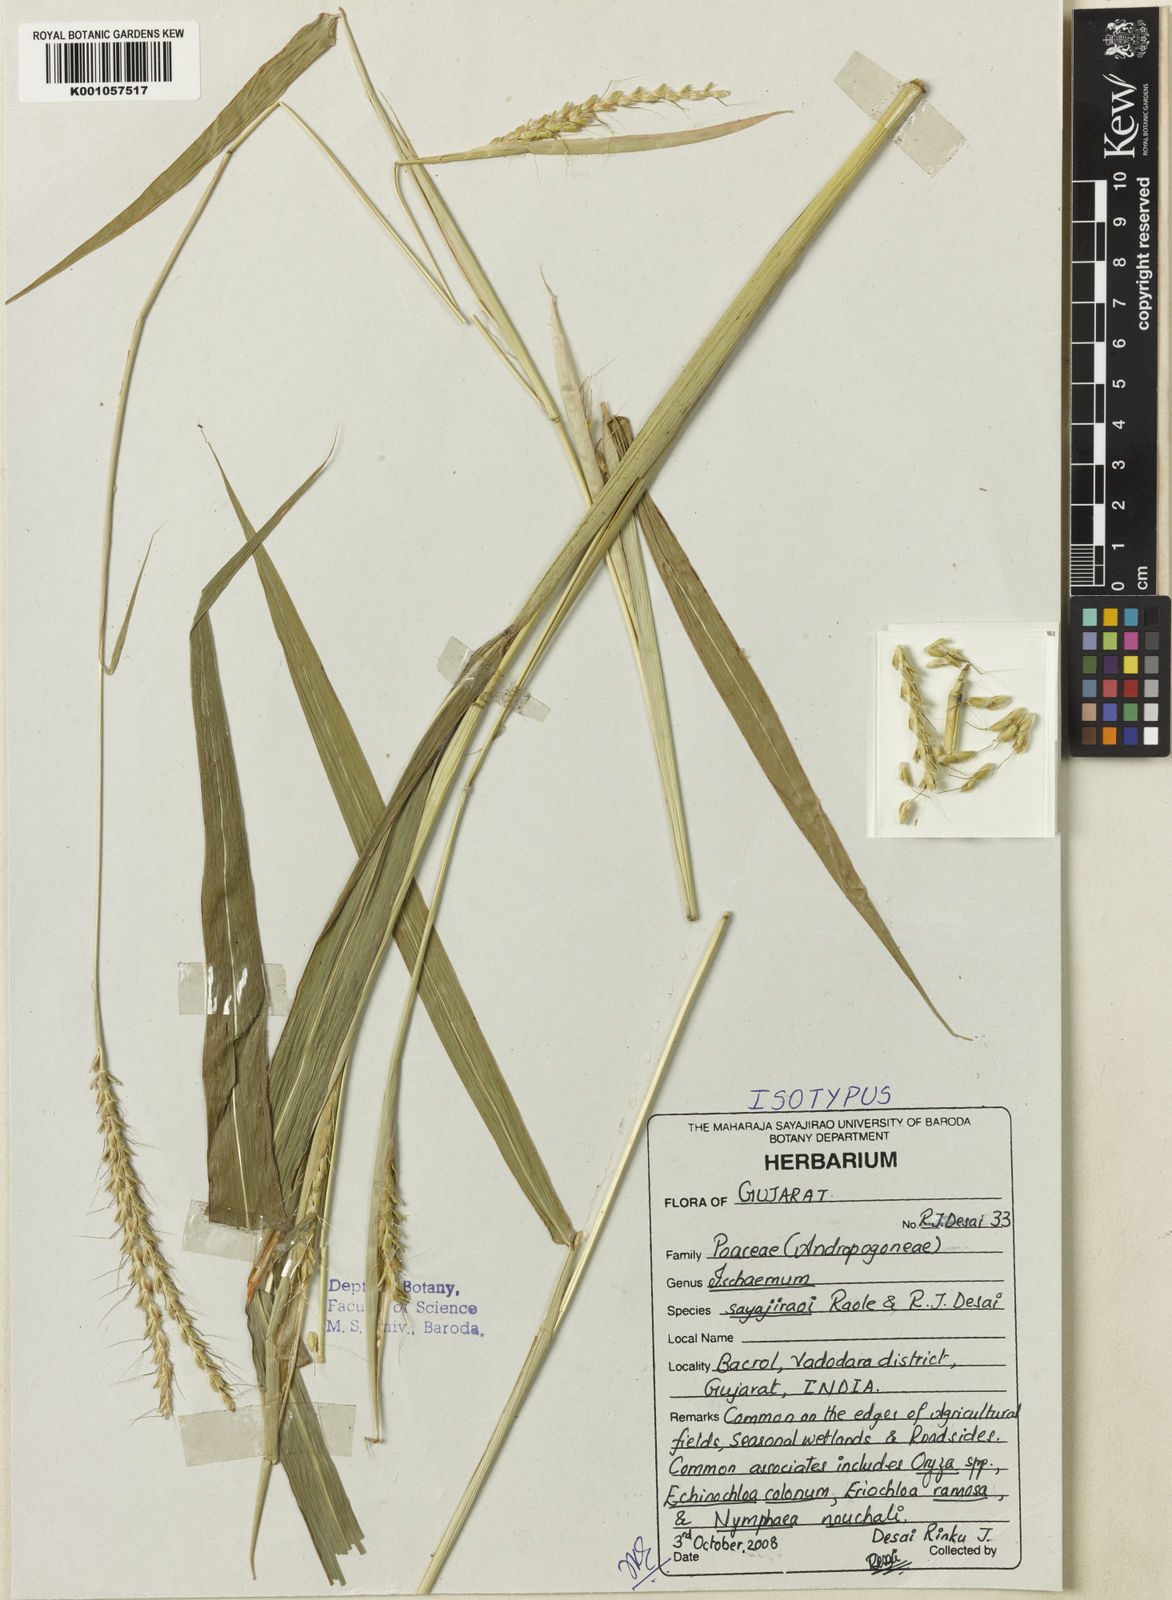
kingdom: Plantae
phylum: Tracheophyta
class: Liliopsida
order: Poales
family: Poaceae
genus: Ischaemum
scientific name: Ischaemum sayajiraoi
